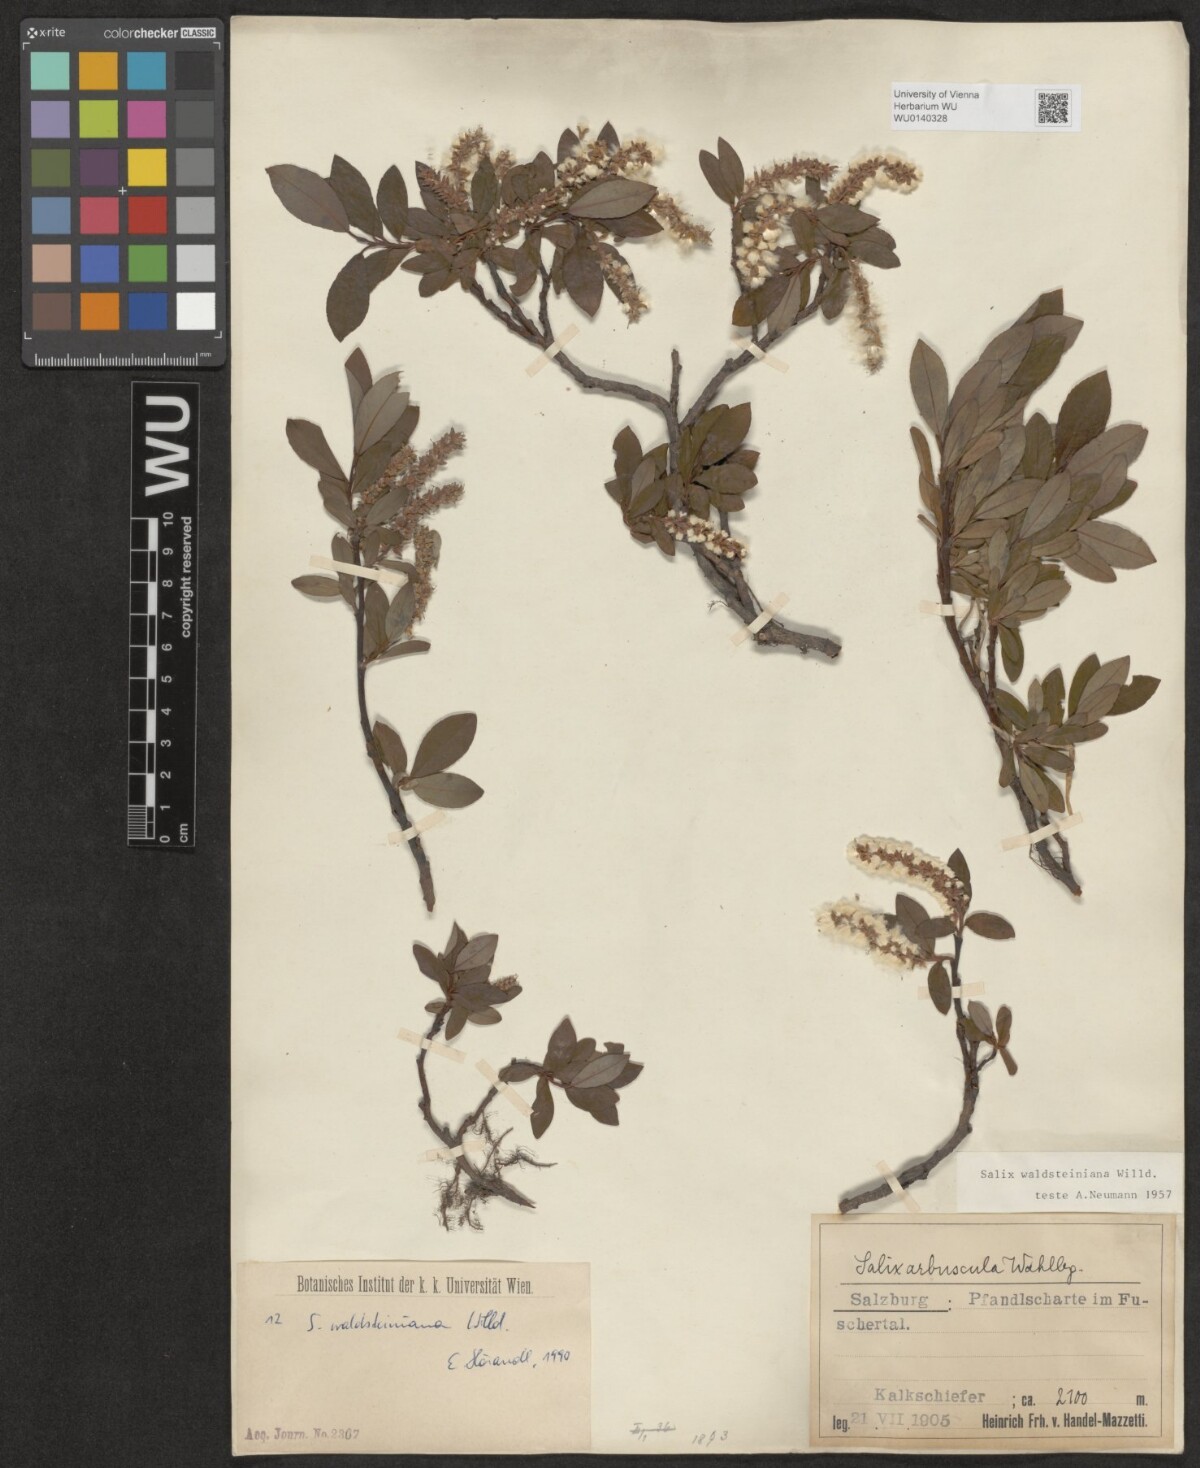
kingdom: Plantae
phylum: Tracheophyta
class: Magnoliopsida
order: Malpighiales
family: Salicaceae
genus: Salix
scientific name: Salix waldsteiniana
